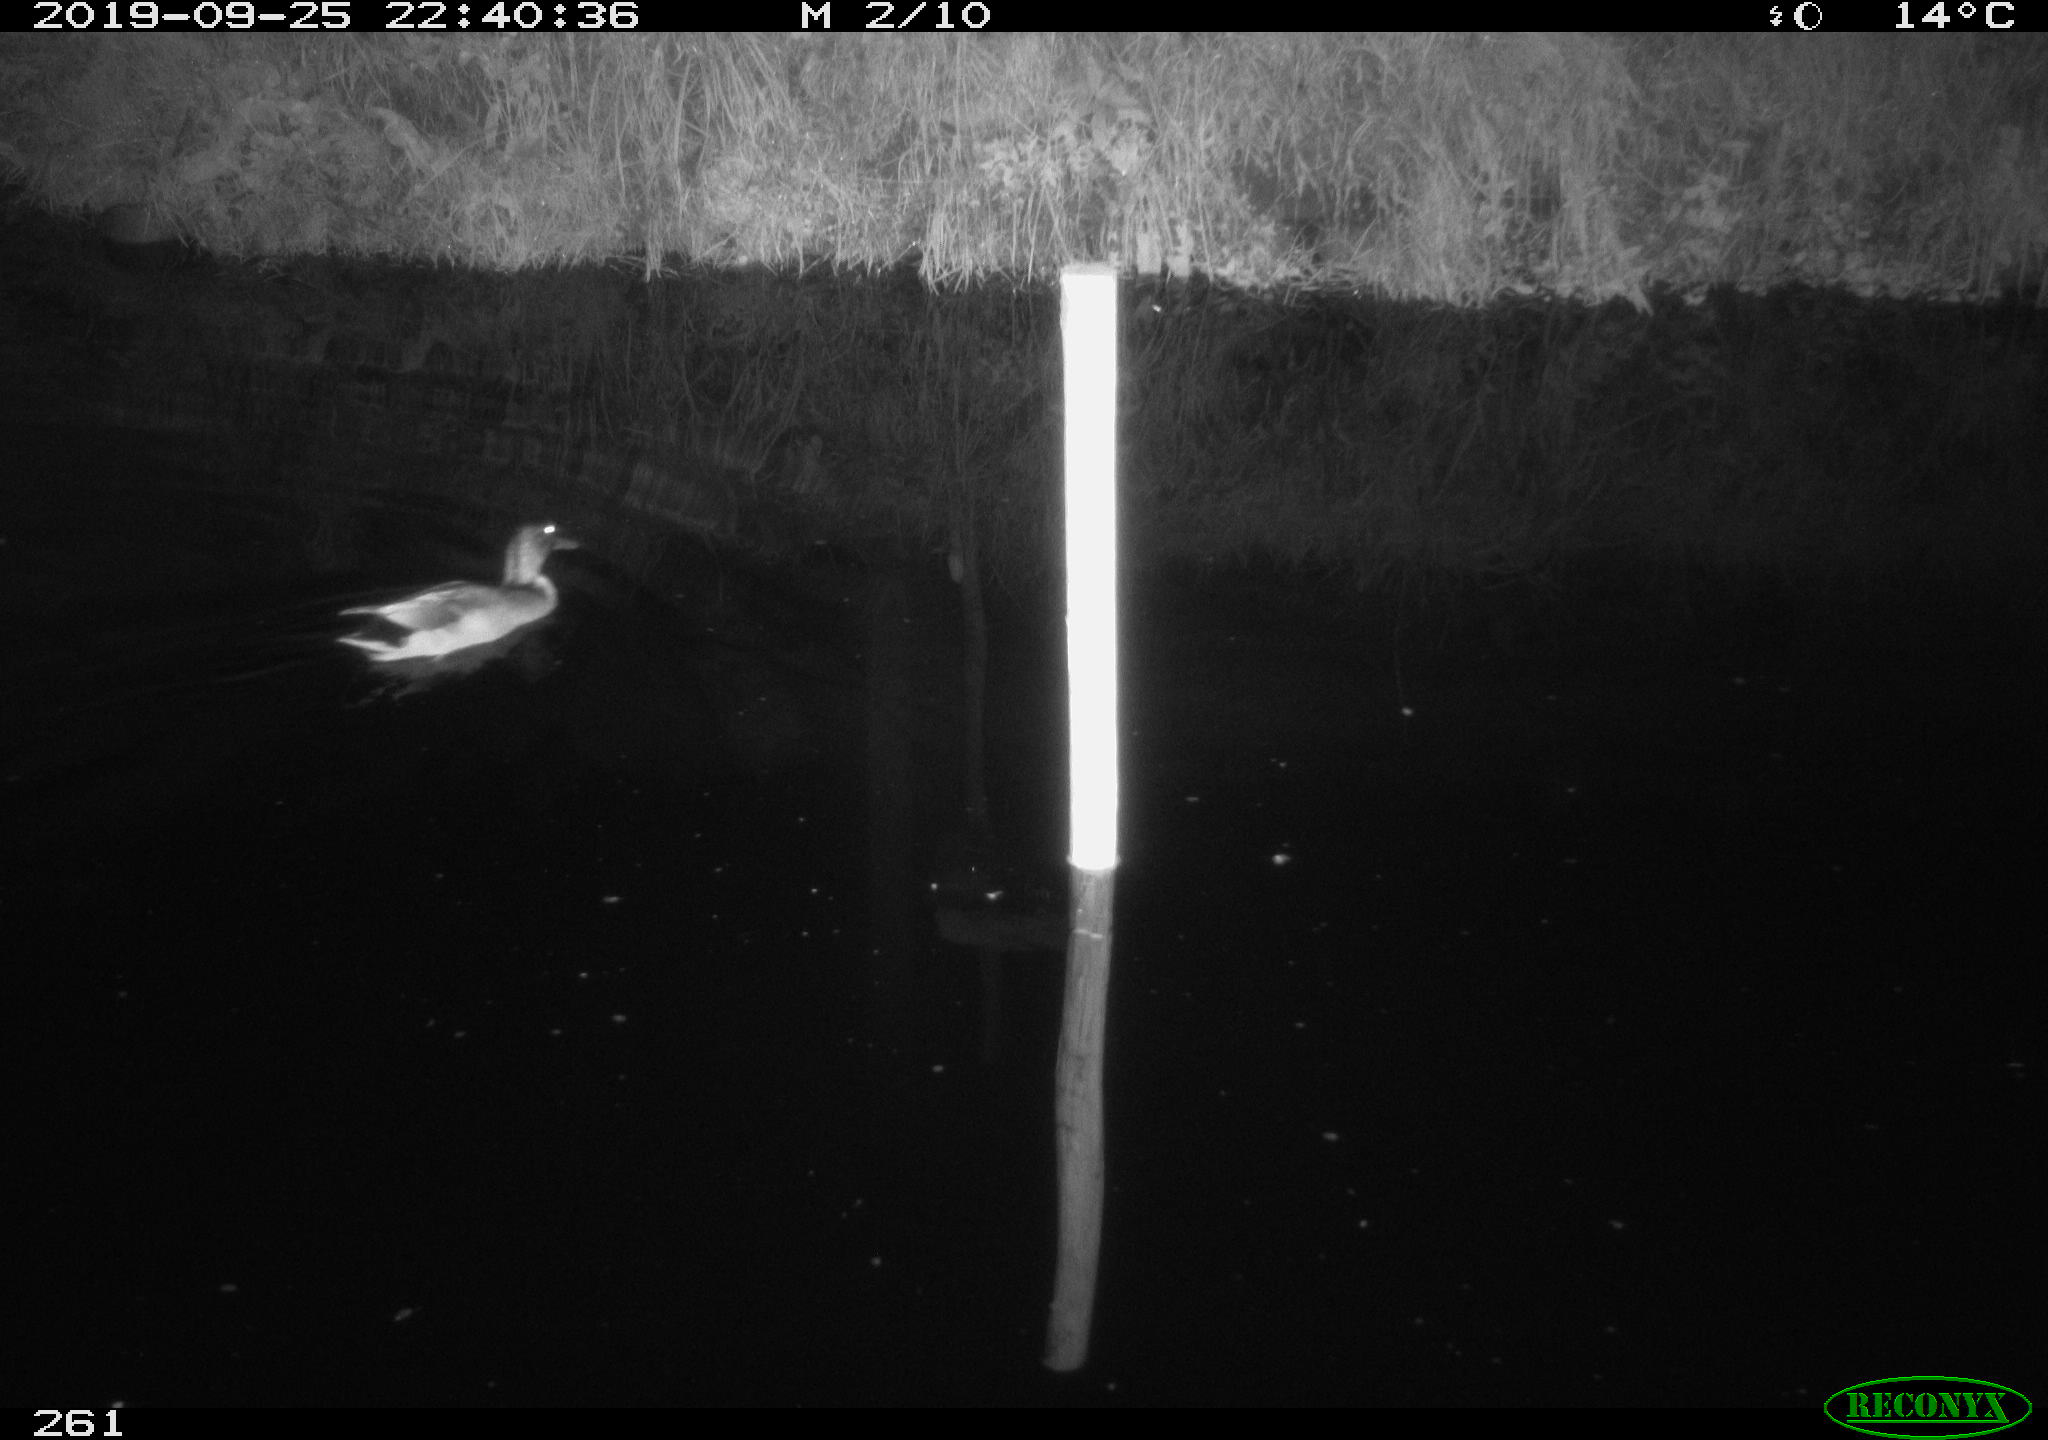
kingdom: Animalia
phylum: Chordata
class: Aves
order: Anseriformes
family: Anatidae
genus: Anas
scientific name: Anas platyrhynchos
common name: Mallard
